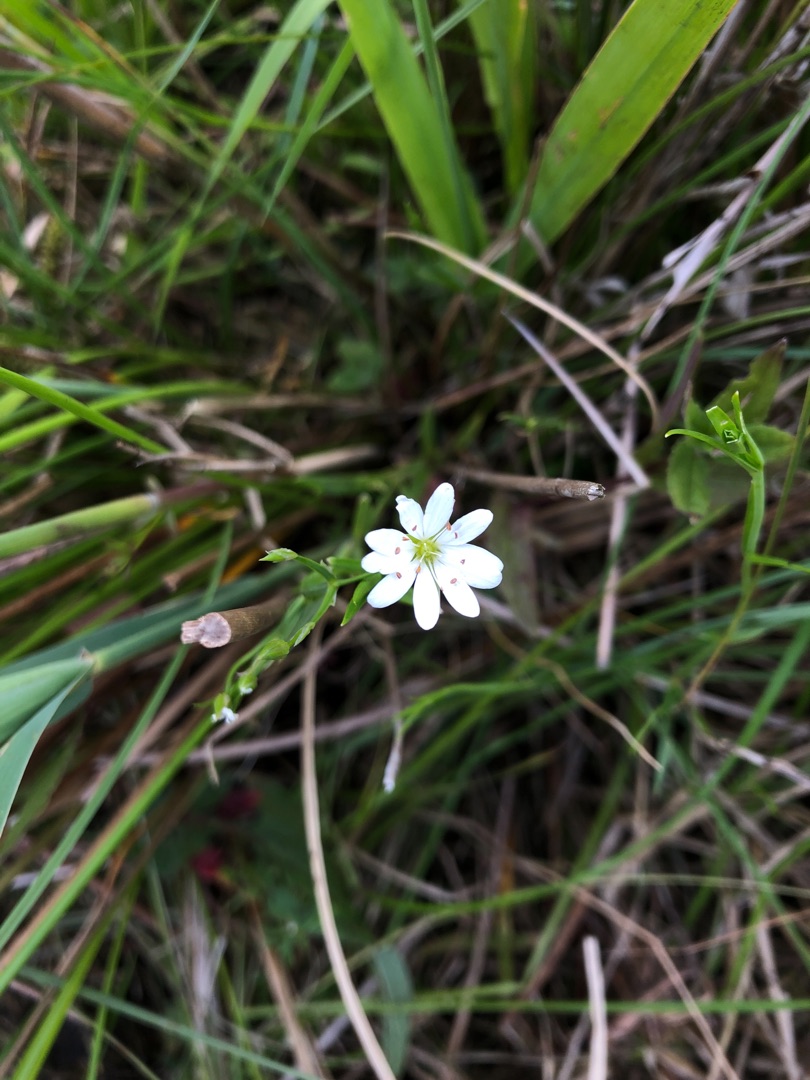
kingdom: Plantae
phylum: Tracheophyta
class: Magnoliopsida
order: Caryophyllales
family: Caryophyllaceae
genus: Stellaria
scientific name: Stellaria palustris
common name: Kær-fladstjerne
